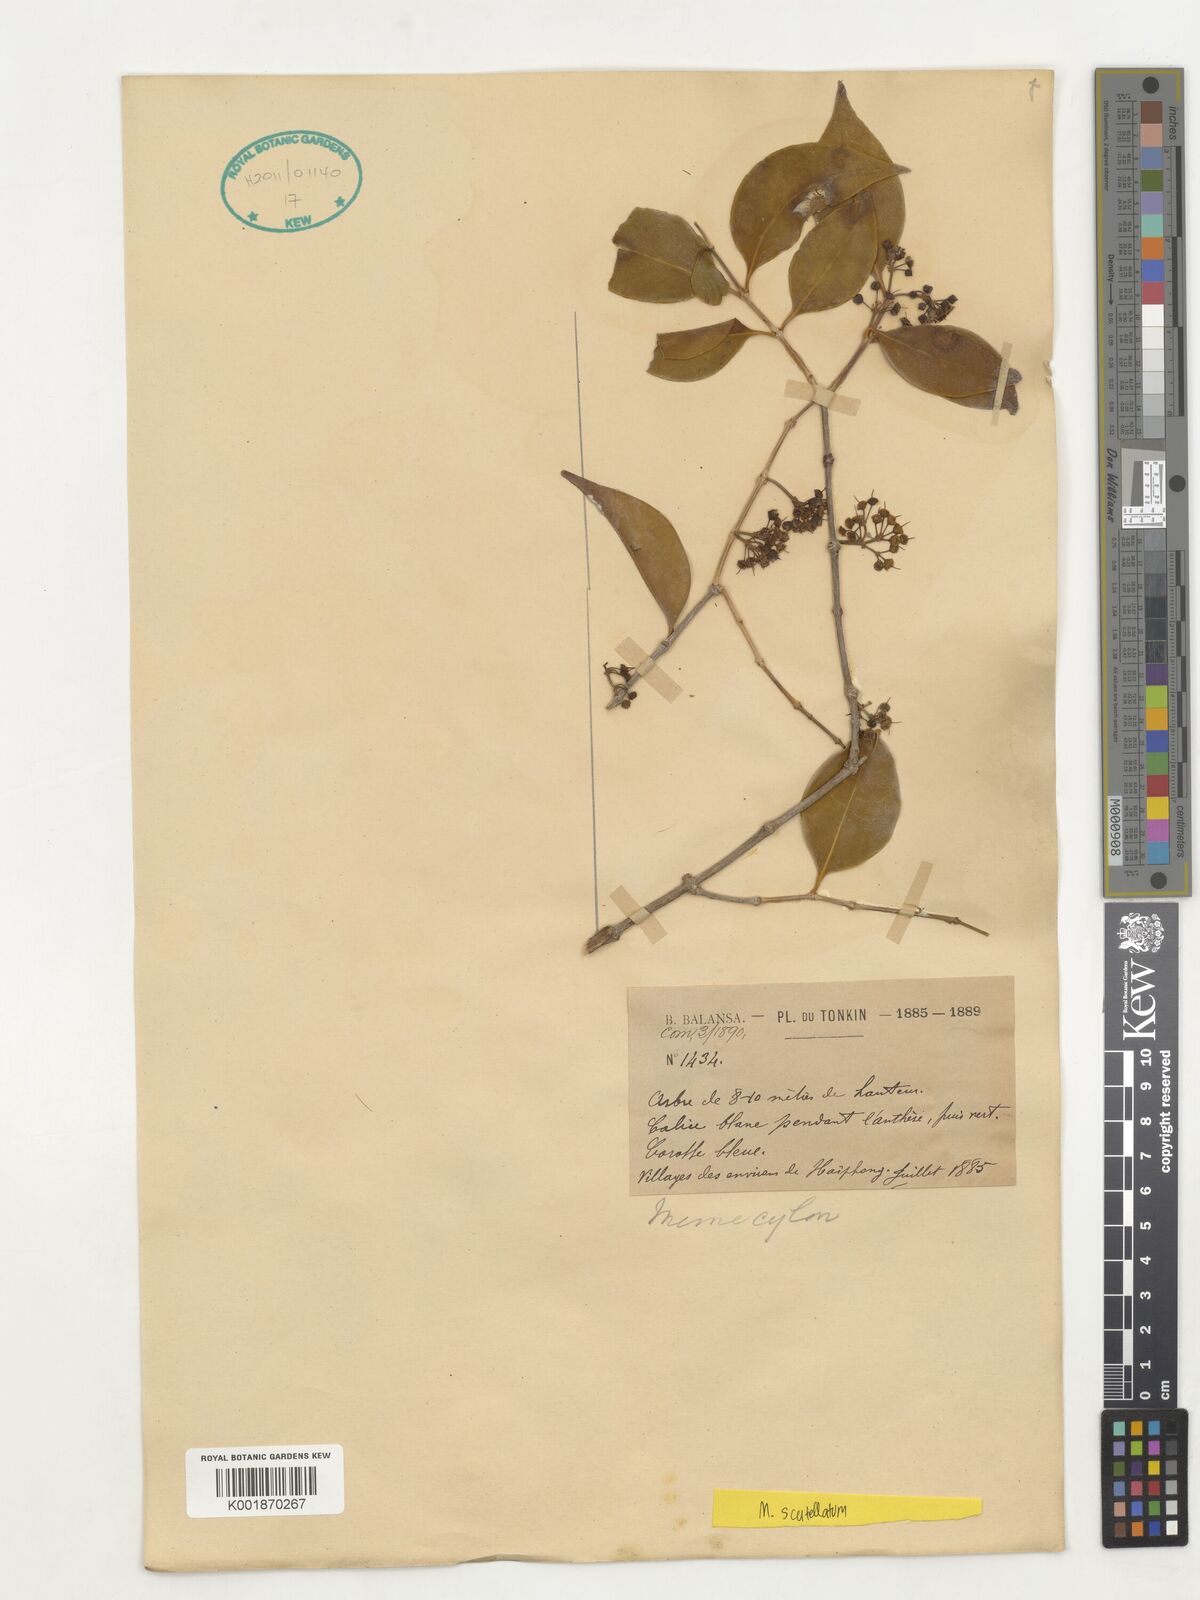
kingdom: Plantae
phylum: Tracheophyta
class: Magnoliopsida
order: Myrtales
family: Melastomataceae
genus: Memecylon
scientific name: Memecylon scutellatum
